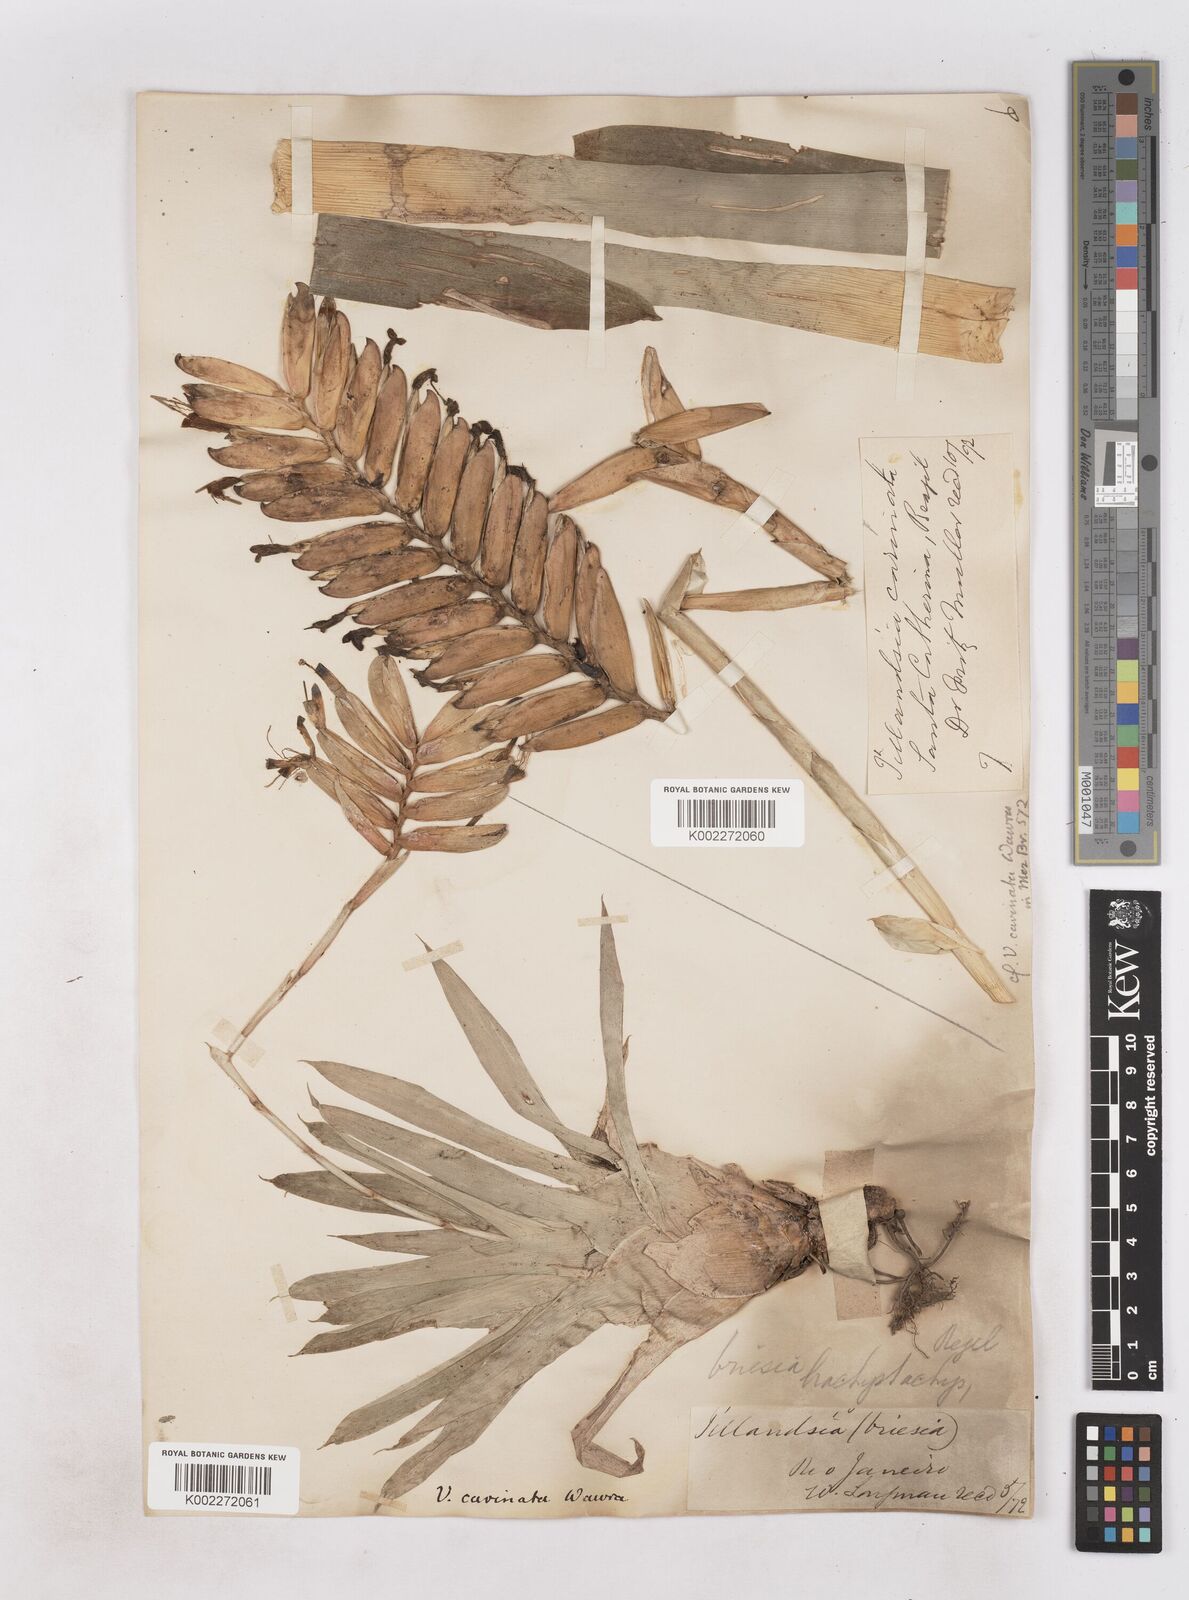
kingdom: Plantae
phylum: Tracheophyta
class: Liliopsida
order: Poales
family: Bromeliaceae
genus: Vriesea
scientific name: Vriesea carinata
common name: Lobster-claws
